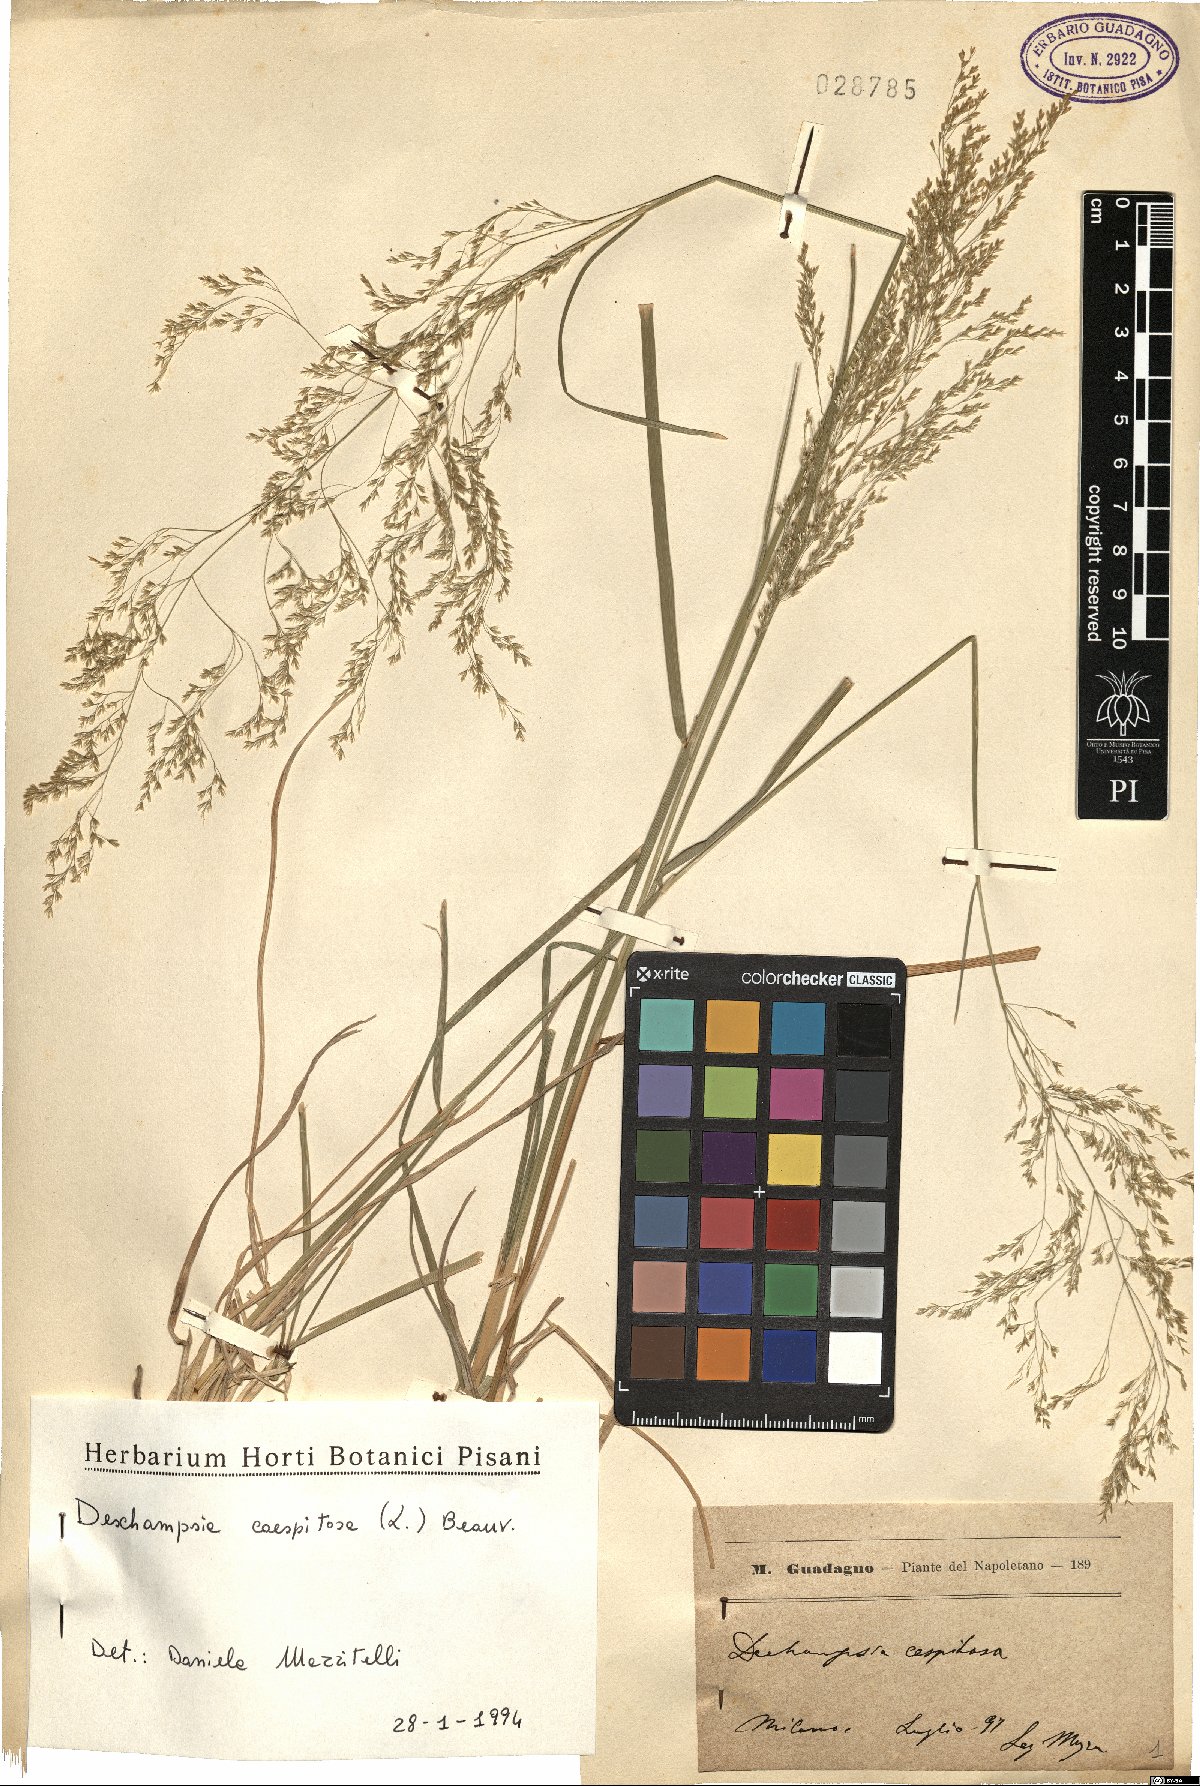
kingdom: Plantae
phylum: Tracheophyta
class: Liliopsida
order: Poales
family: Poaceae
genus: Deschampsia
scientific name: Deschampsia cespitosa
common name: Tufted hair-grass
